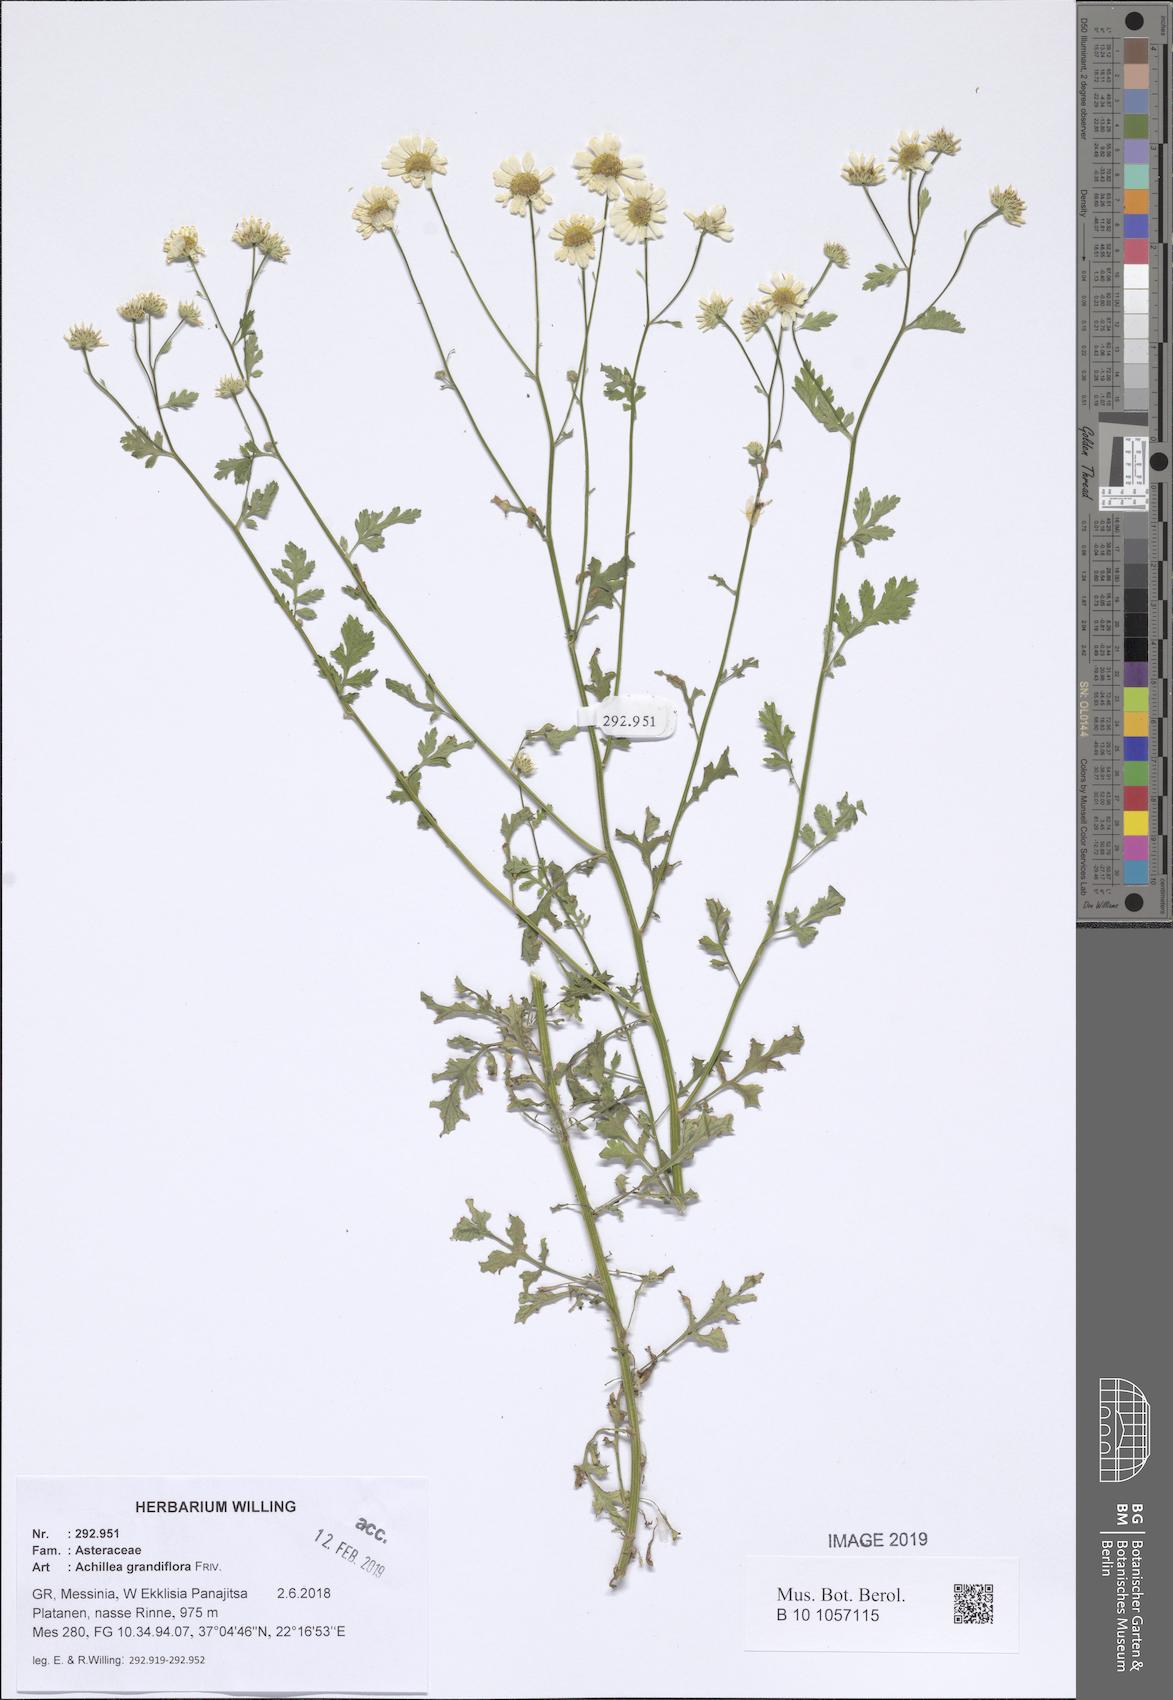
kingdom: Plantae
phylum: Tracheophyta
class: Magnoliopsida
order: Asterales
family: Asteraceae
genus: Achillea
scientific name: Achillea grandifolia
